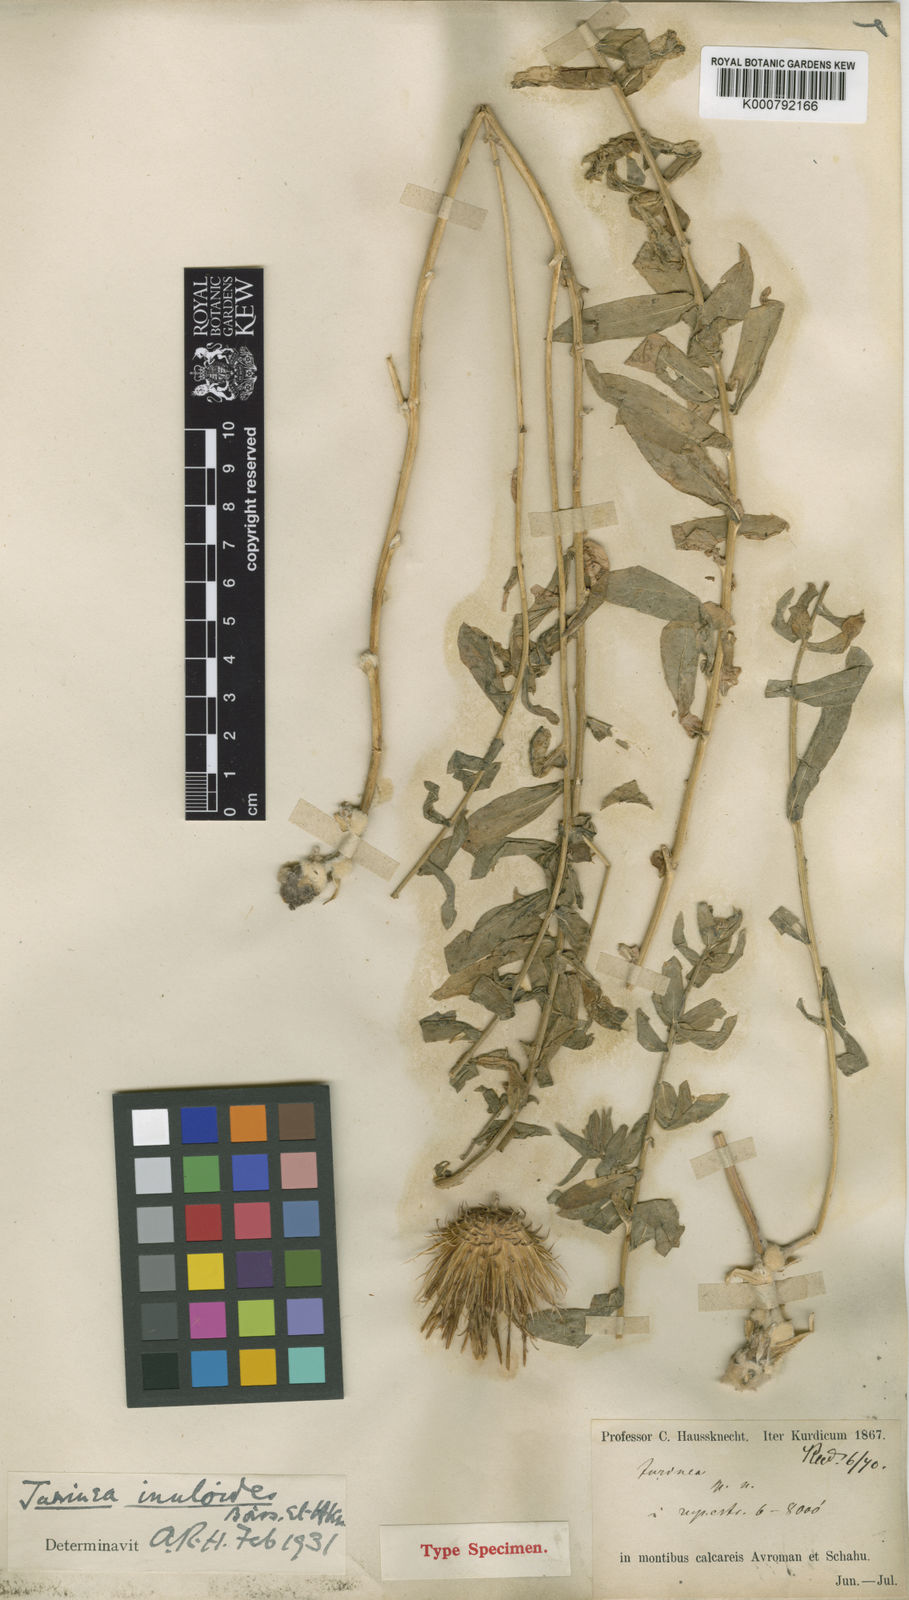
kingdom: Plantae
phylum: Tracheophyta
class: Magnoliopsida
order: Asterales
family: Asteraceae
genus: Jurinea
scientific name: Jurinea inuloides
